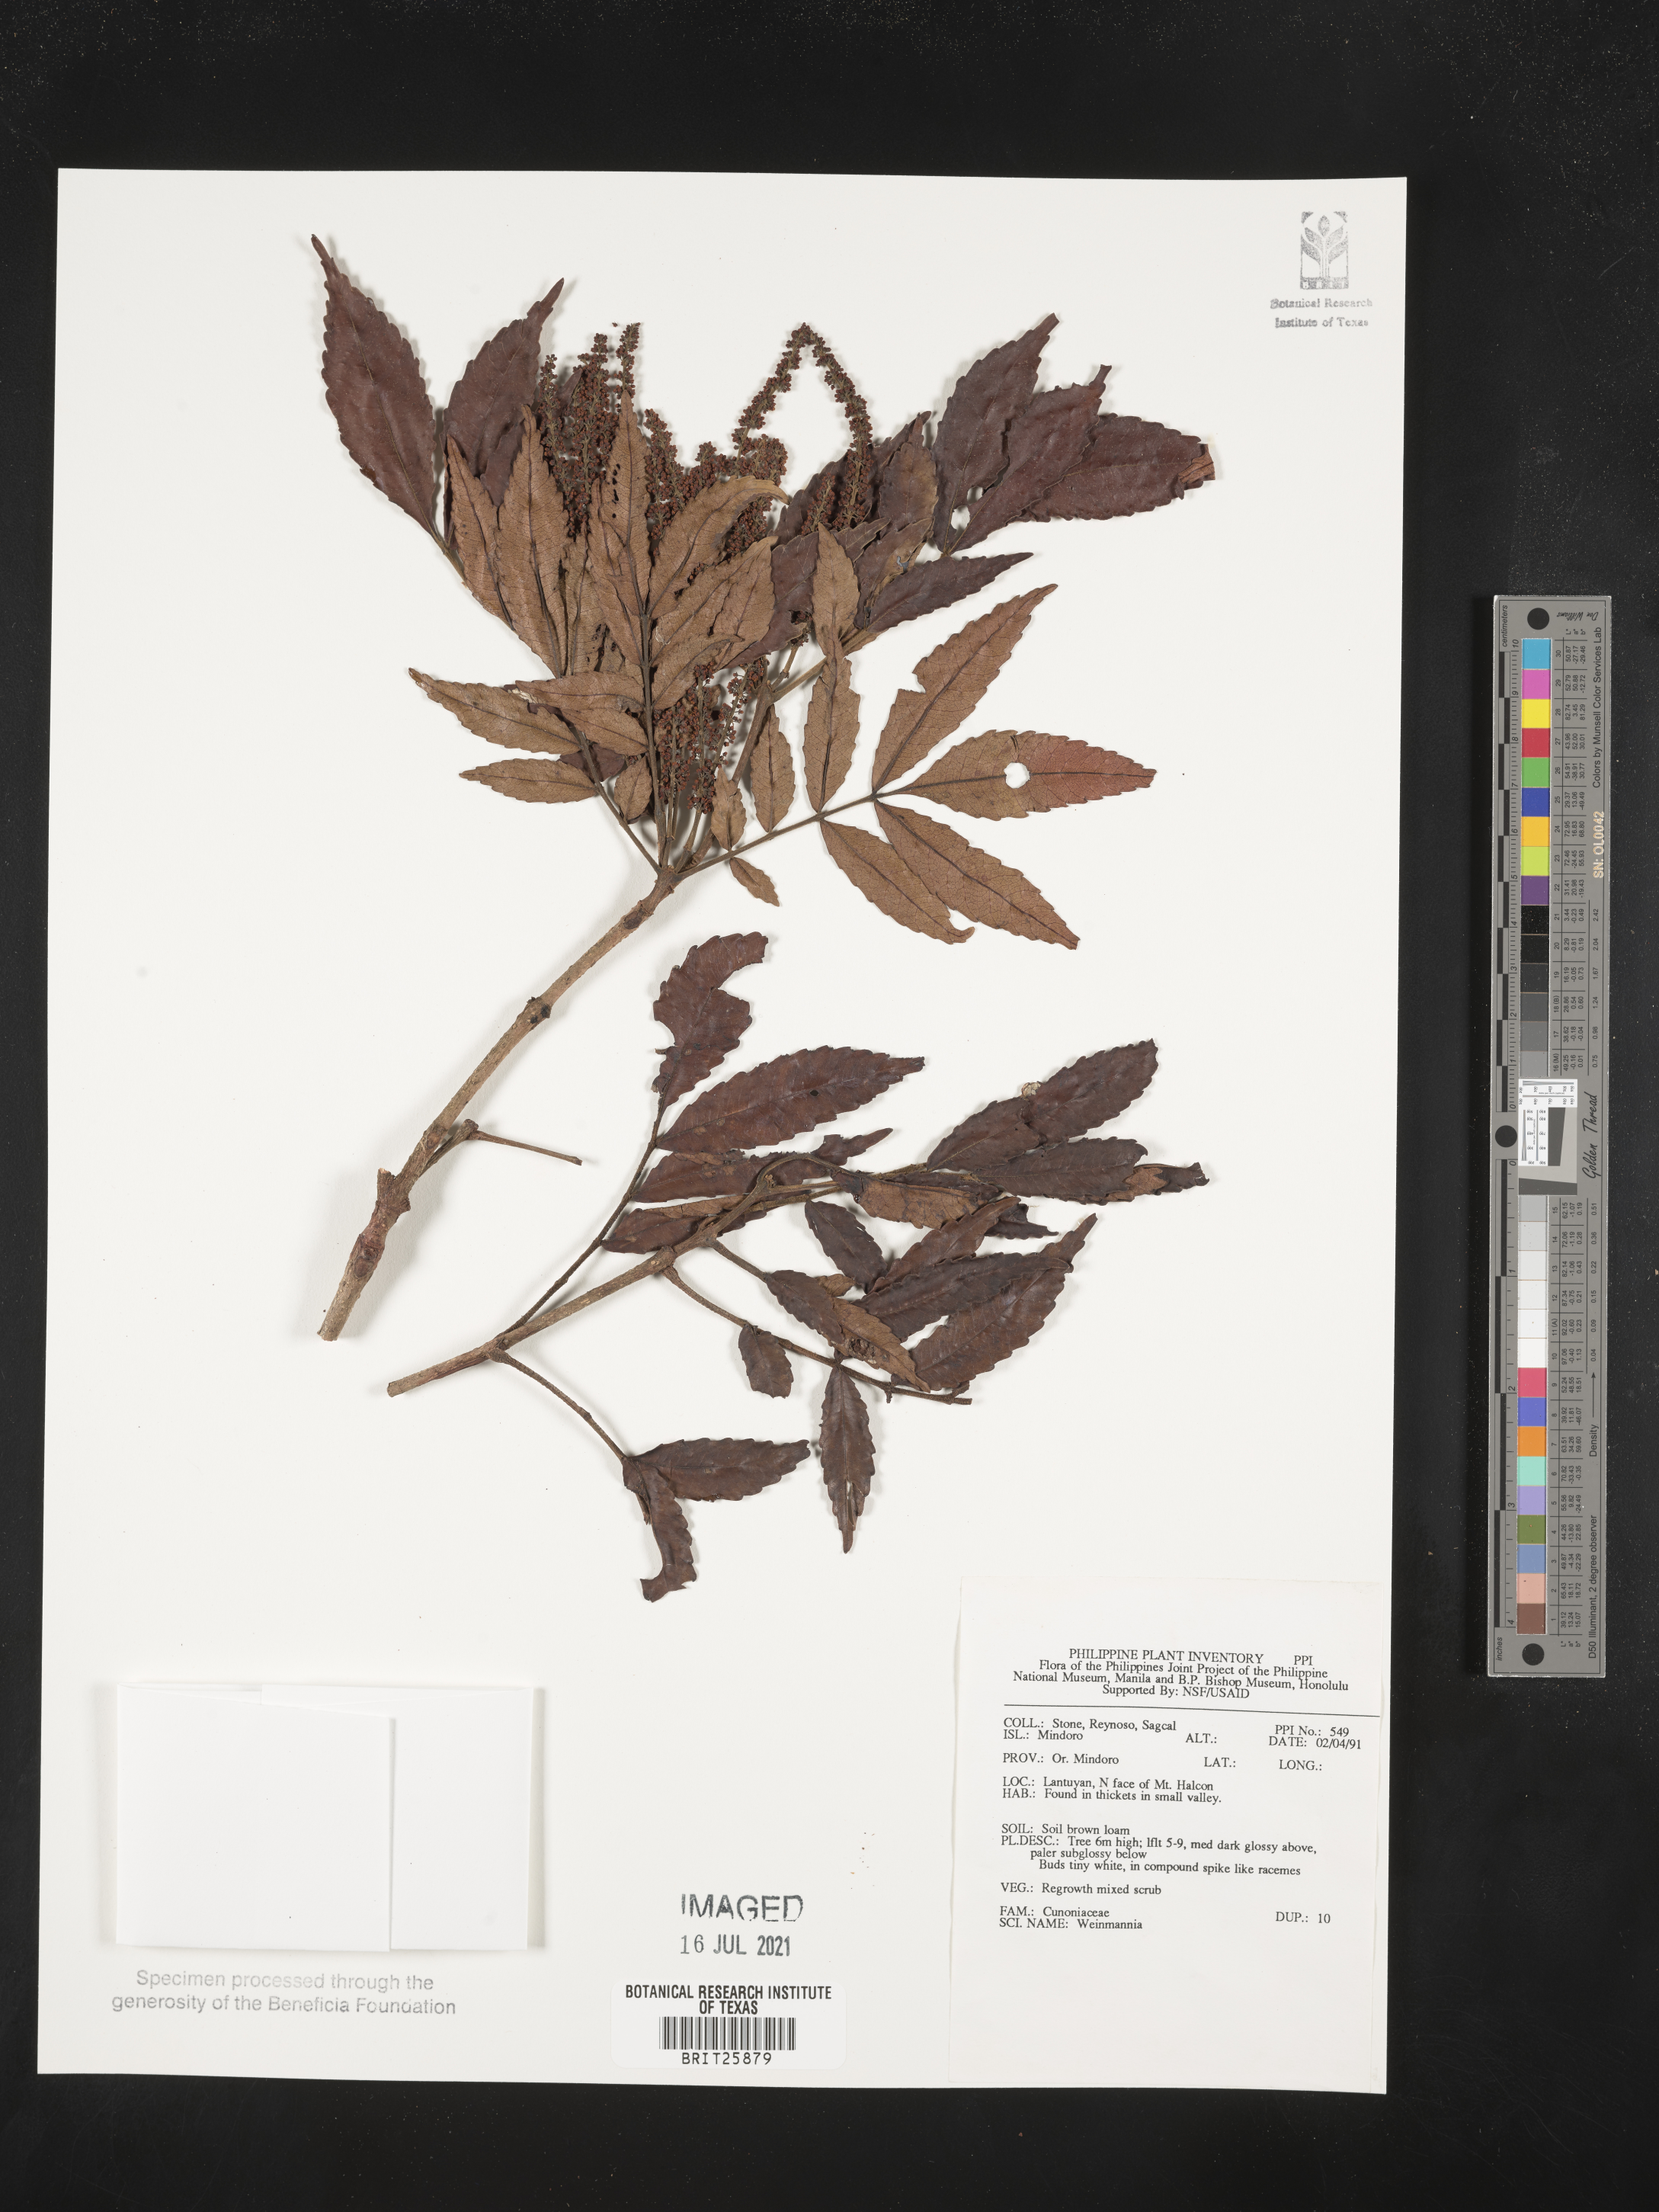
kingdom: Plantae
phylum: Tracheophyta
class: Magnoliopsida
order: Oxalidales
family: Cunoniaceae
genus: Weinmannia
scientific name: Weinmannia
